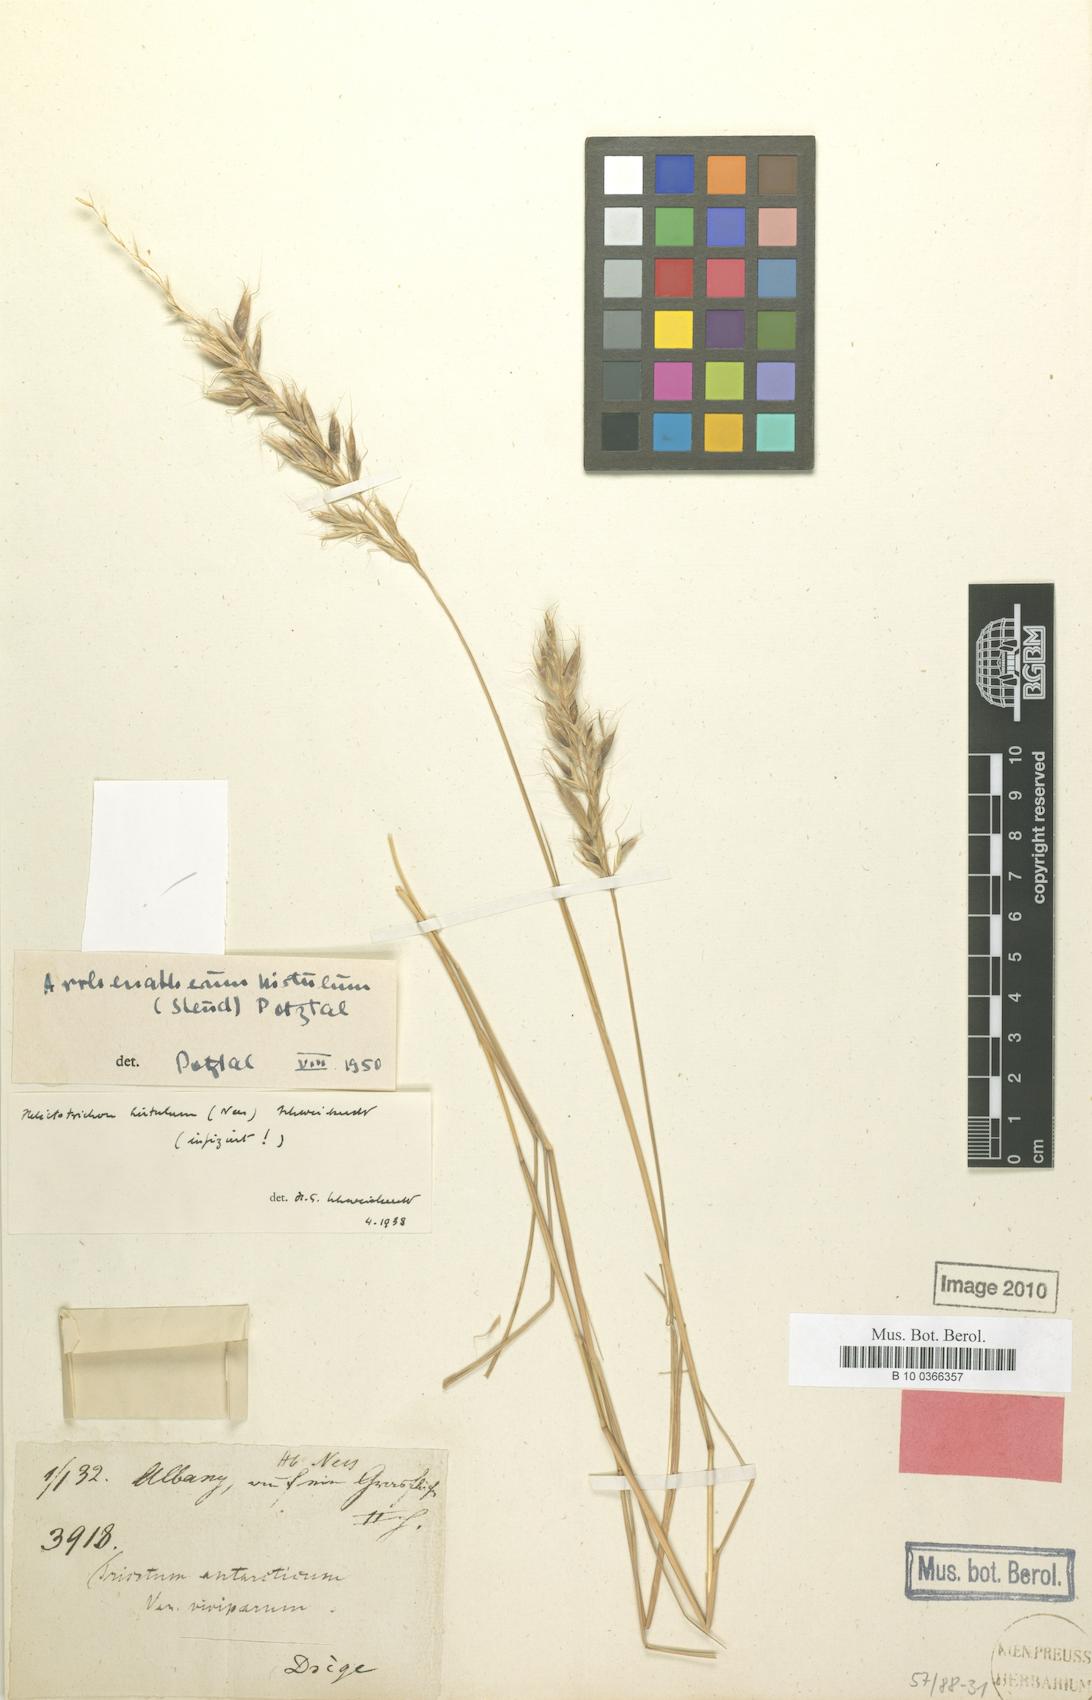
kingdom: Plantae
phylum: Tracheophyta
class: Liliopsida
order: Poales
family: Poaceae
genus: Koeleria
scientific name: Koeleria antarctica
